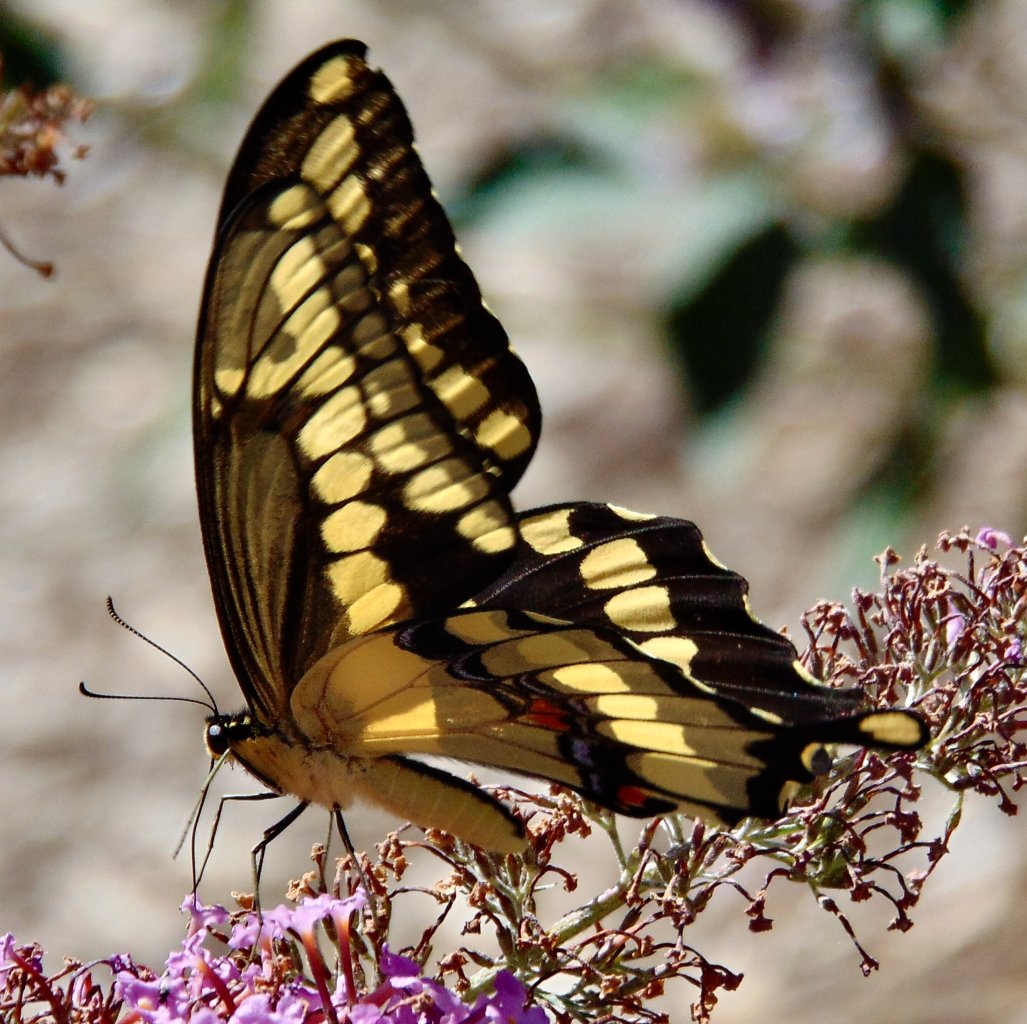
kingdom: Animalia
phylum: Arthropoda
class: Insecta
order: Lepidoptera
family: Papilionidae
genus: Papilio
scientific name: Papilio cresphontes
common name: Eastern Giant Swallowtail
